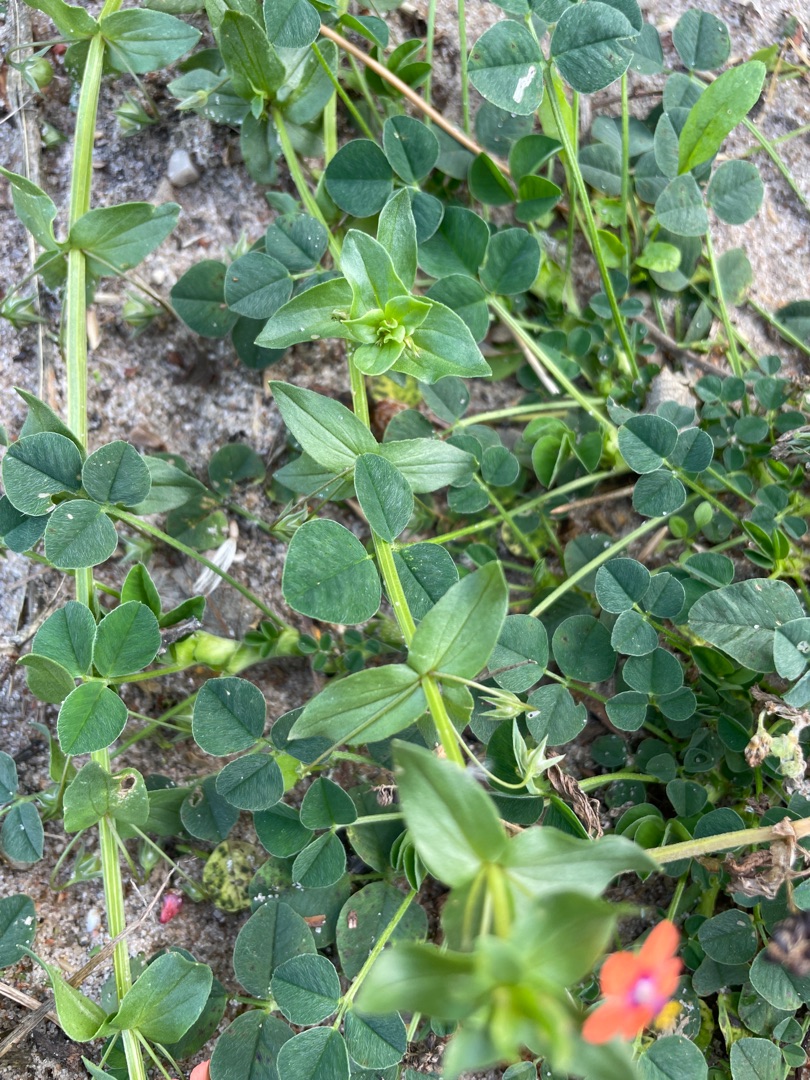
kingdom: Plantae
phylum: Tracheophyta
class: Magnoliopsida
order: Ericales
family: Primulaceae
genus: Lysimachia
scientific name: Lysimachia arvensis
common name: Rød arve
